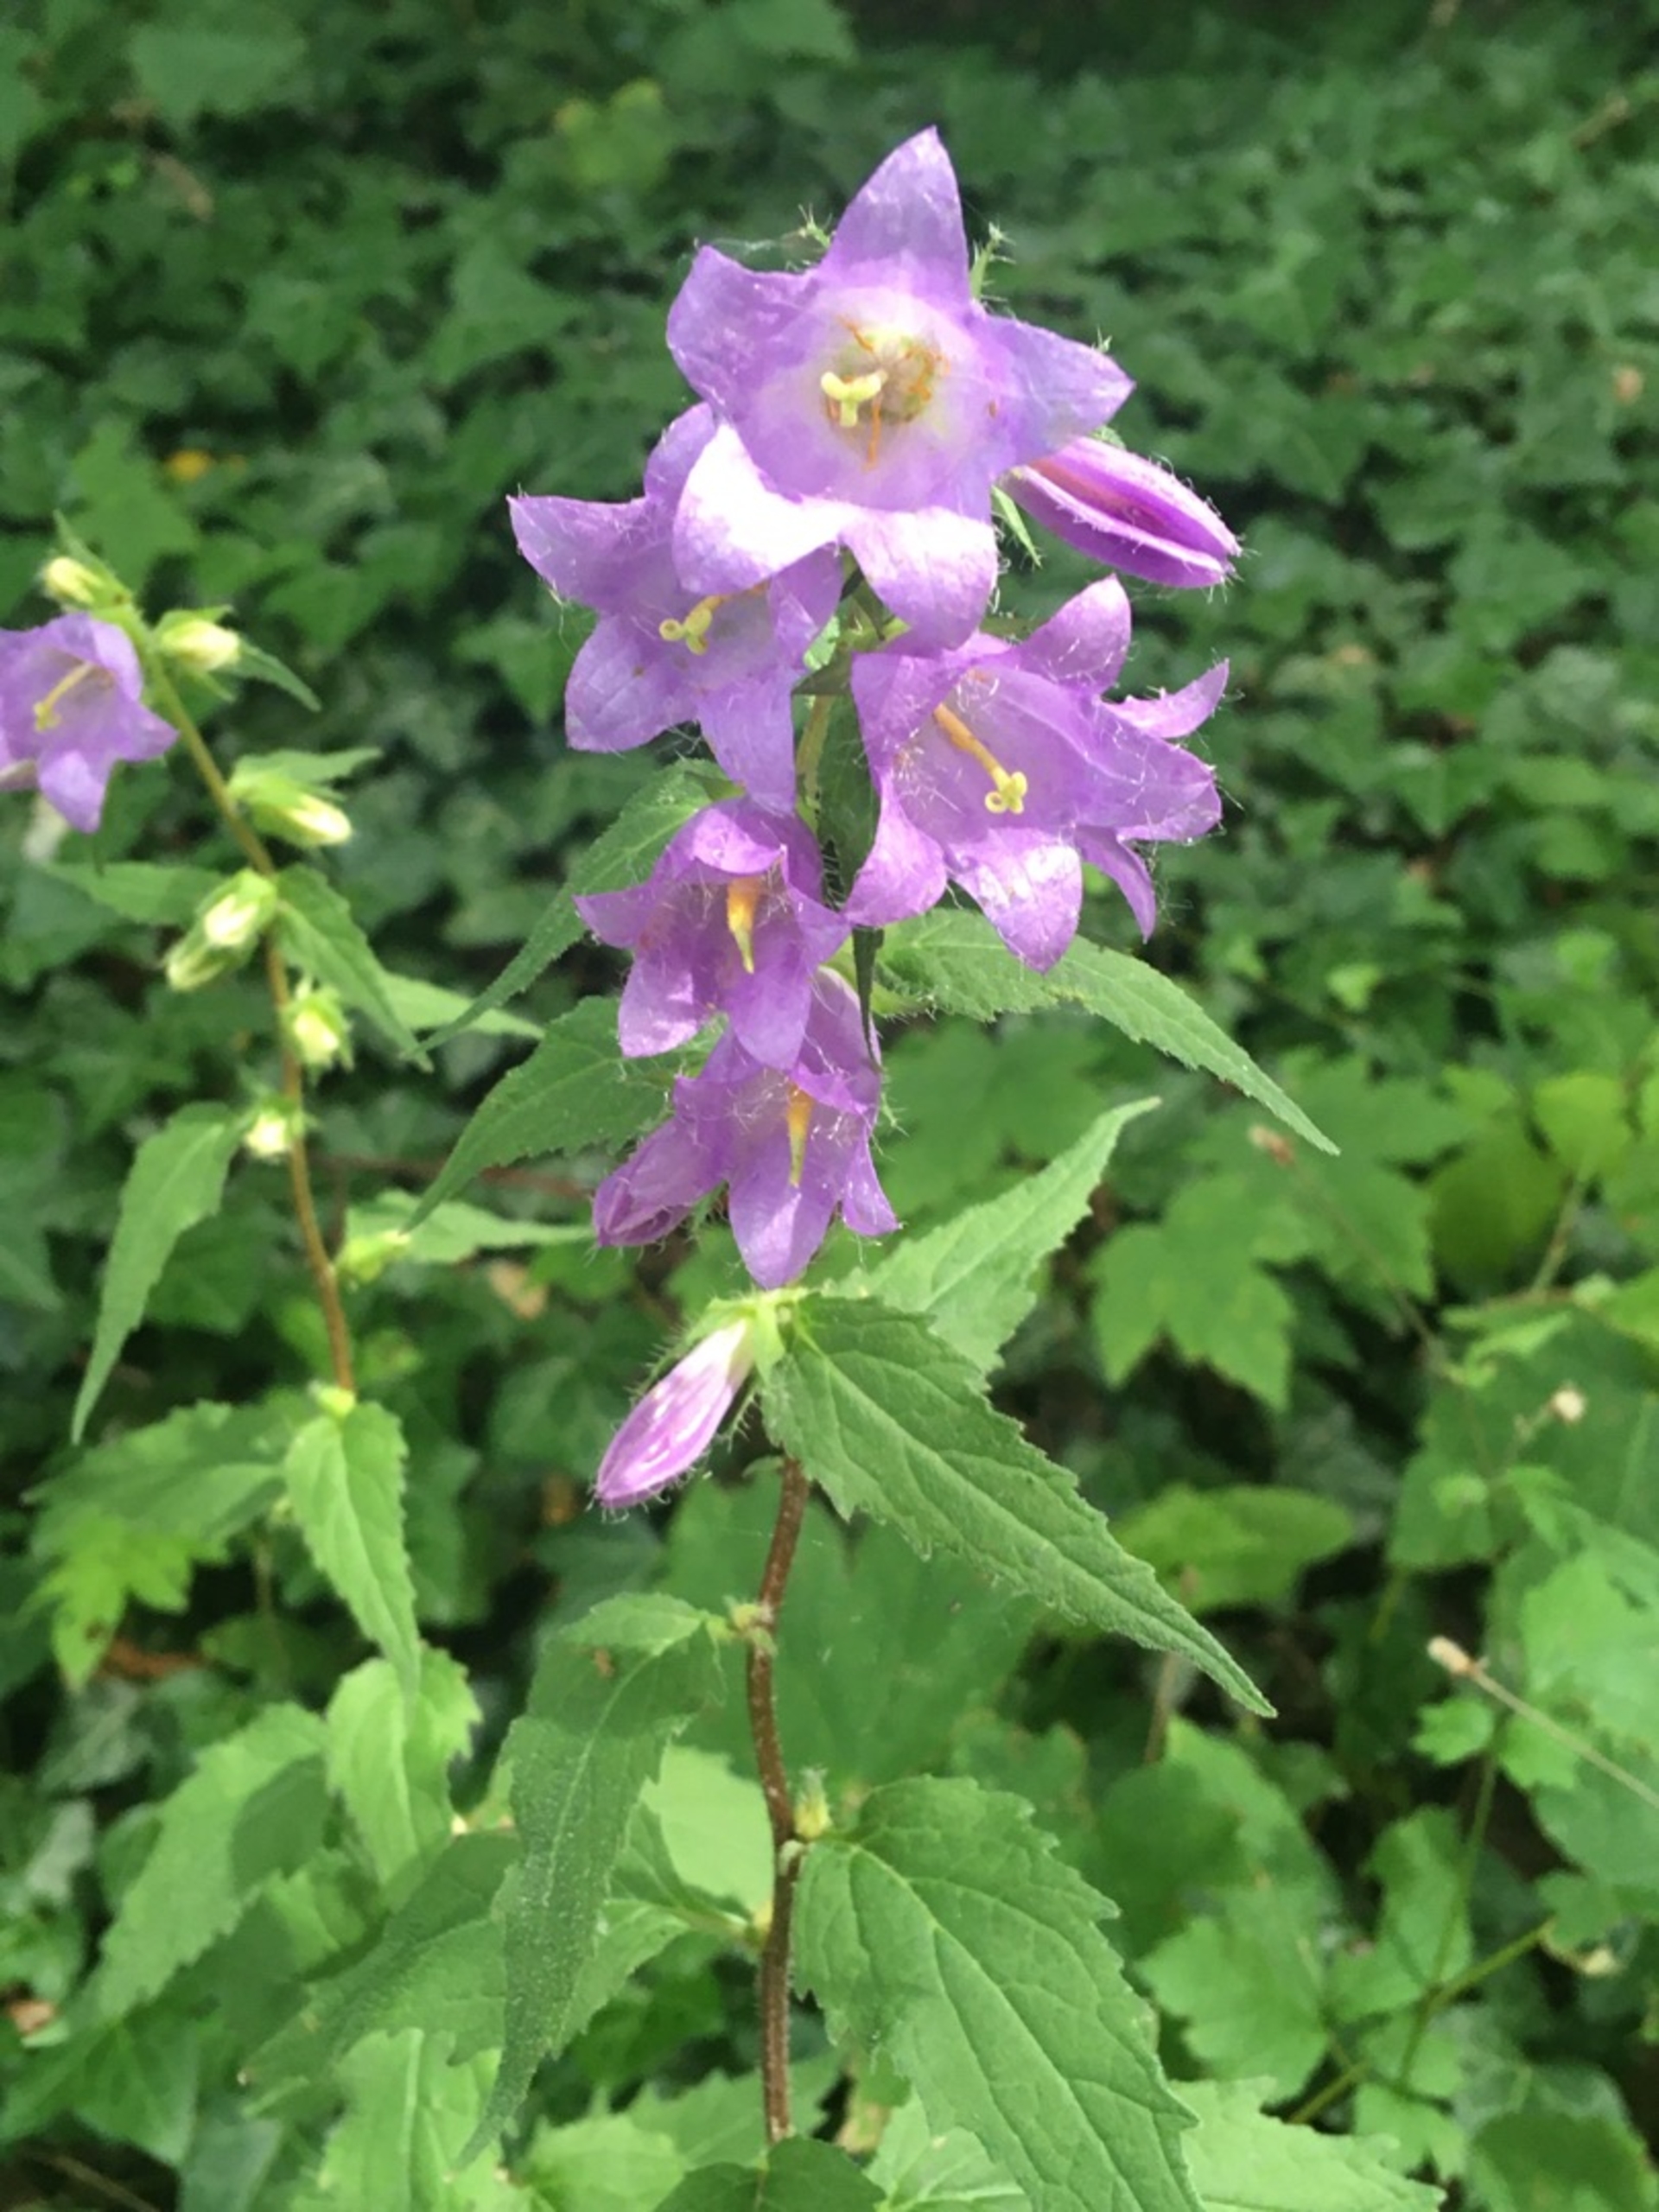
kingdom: Plantae
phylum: Tracheophyta
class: Magnoliopsida
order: Asterales
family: Campanulaceae
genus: Campanula
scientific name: Campanula trachelium
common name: Nælde-klokke
